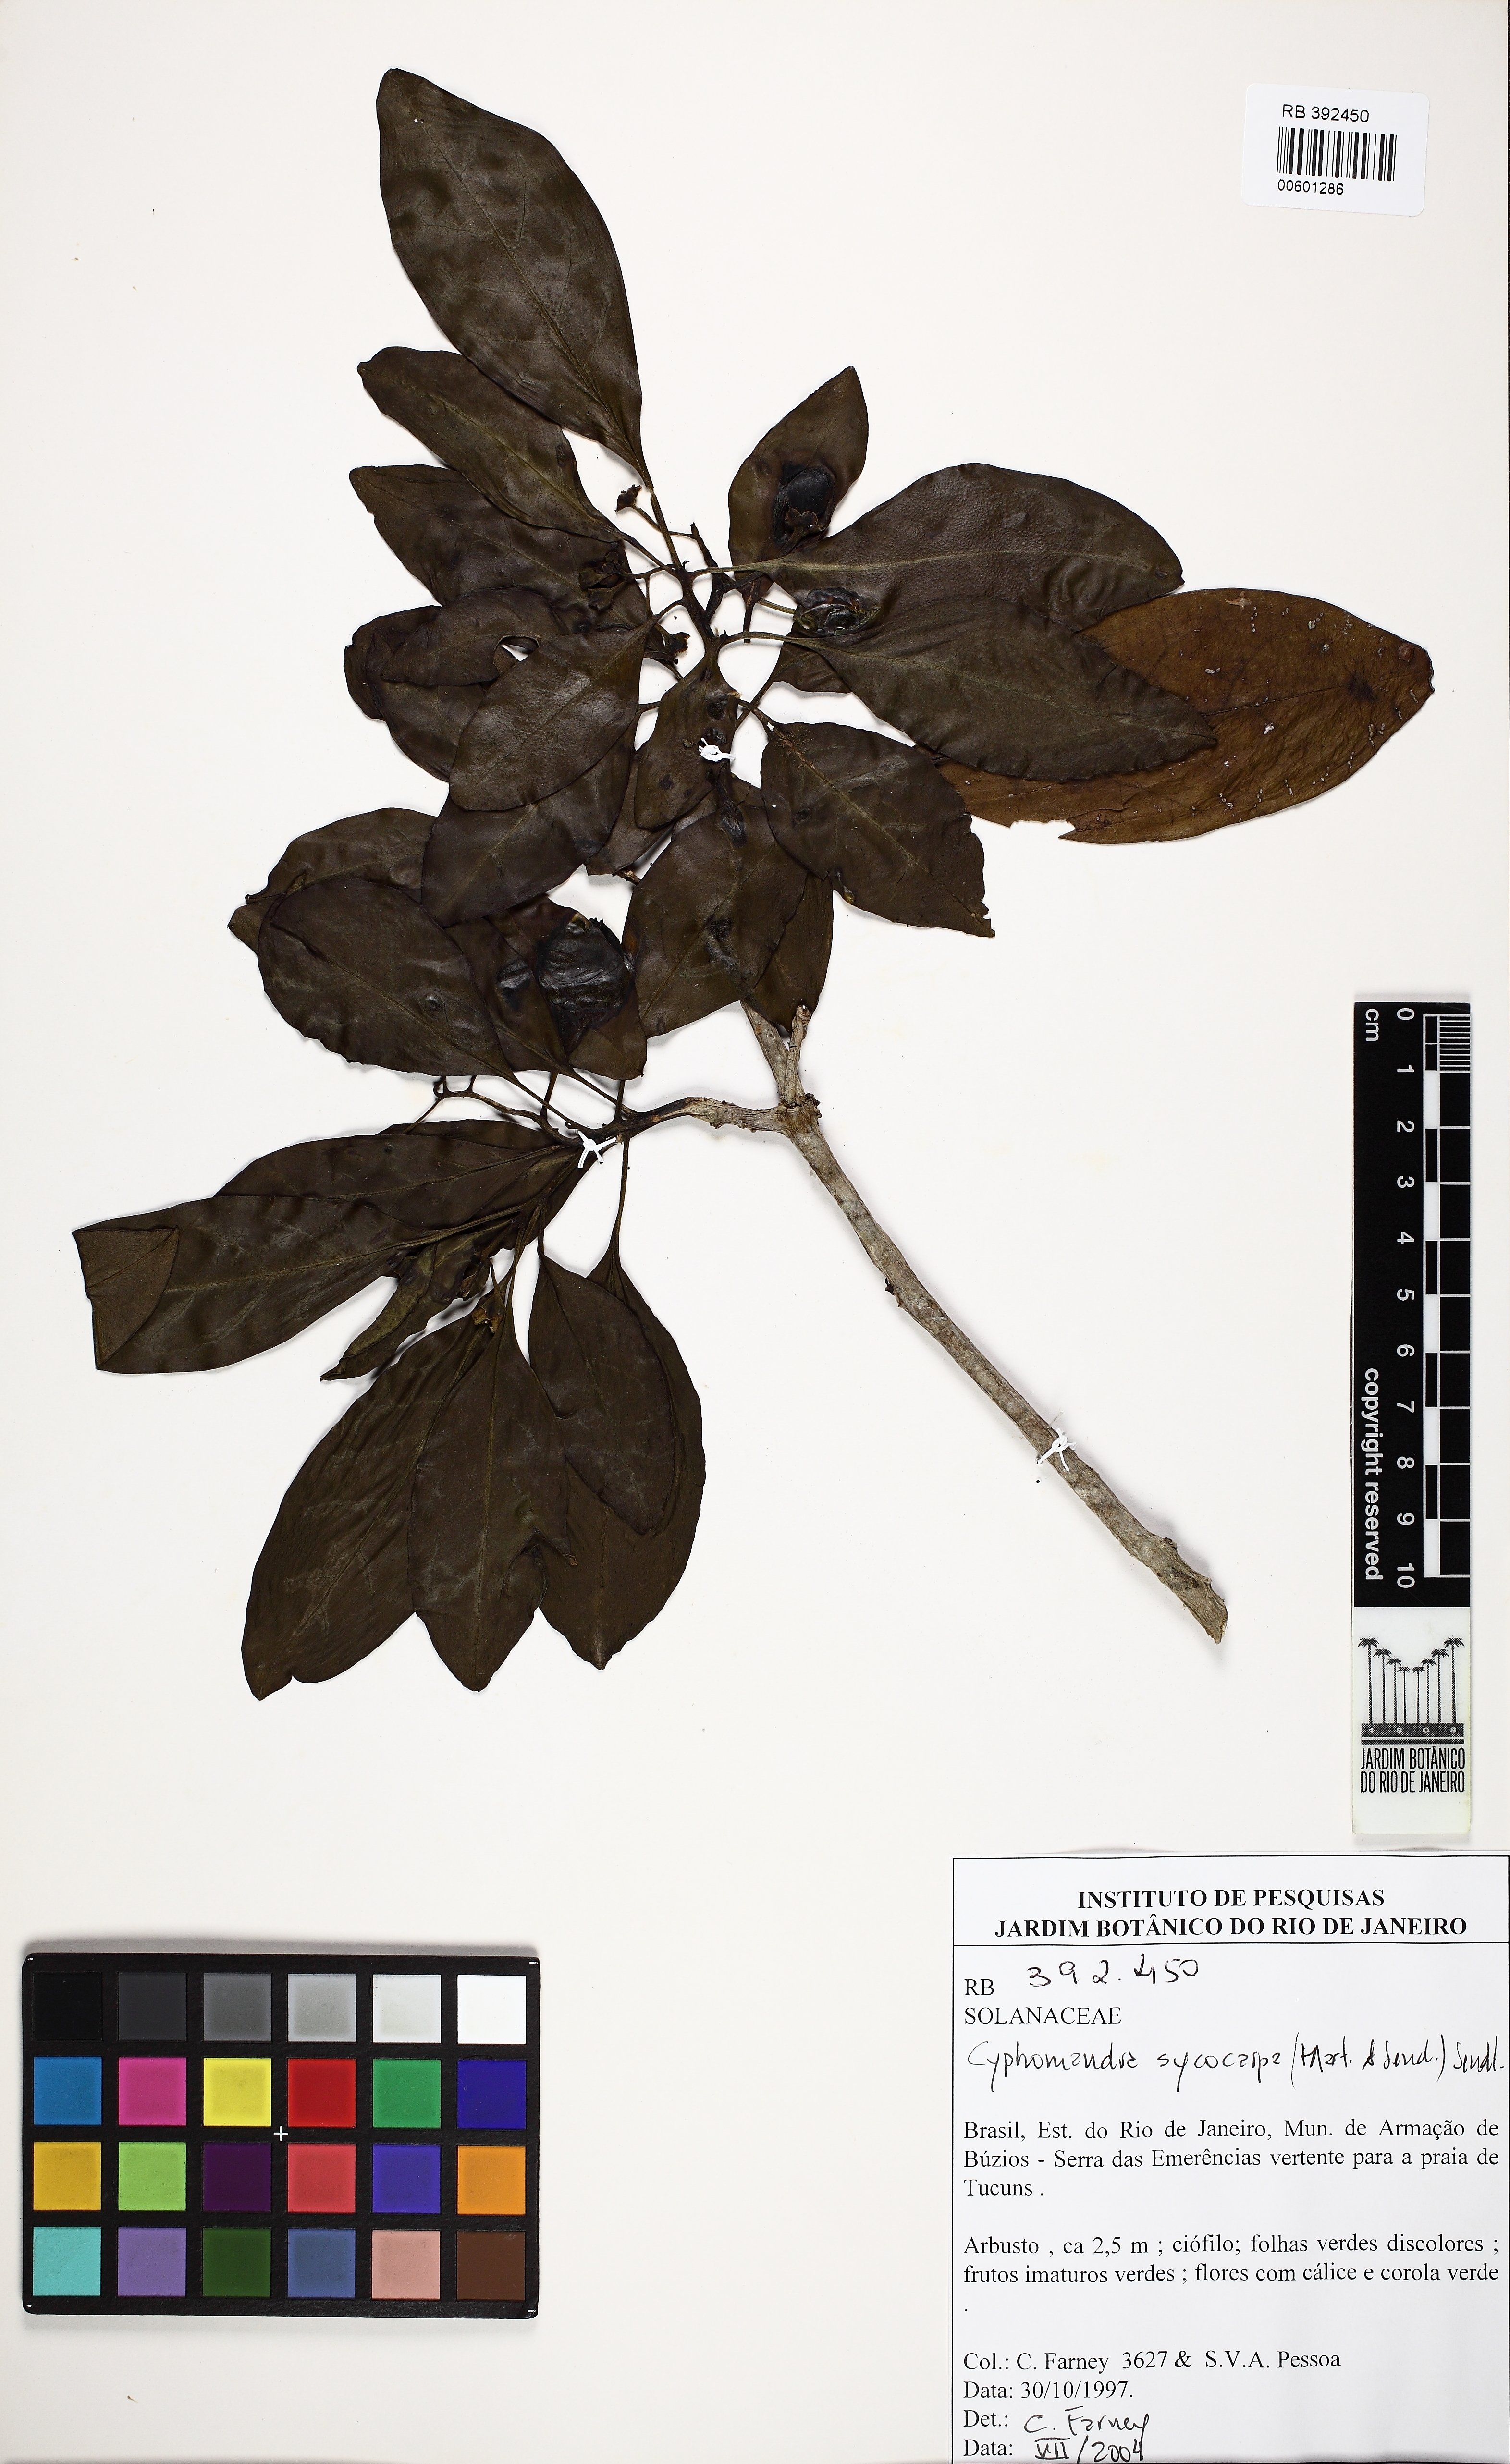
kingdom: Plantae
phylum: Tracheophyta
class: Magnoliopsida
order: Solanales
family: Solanaceae
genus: Solanum
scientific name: Solanum sycocarpum
